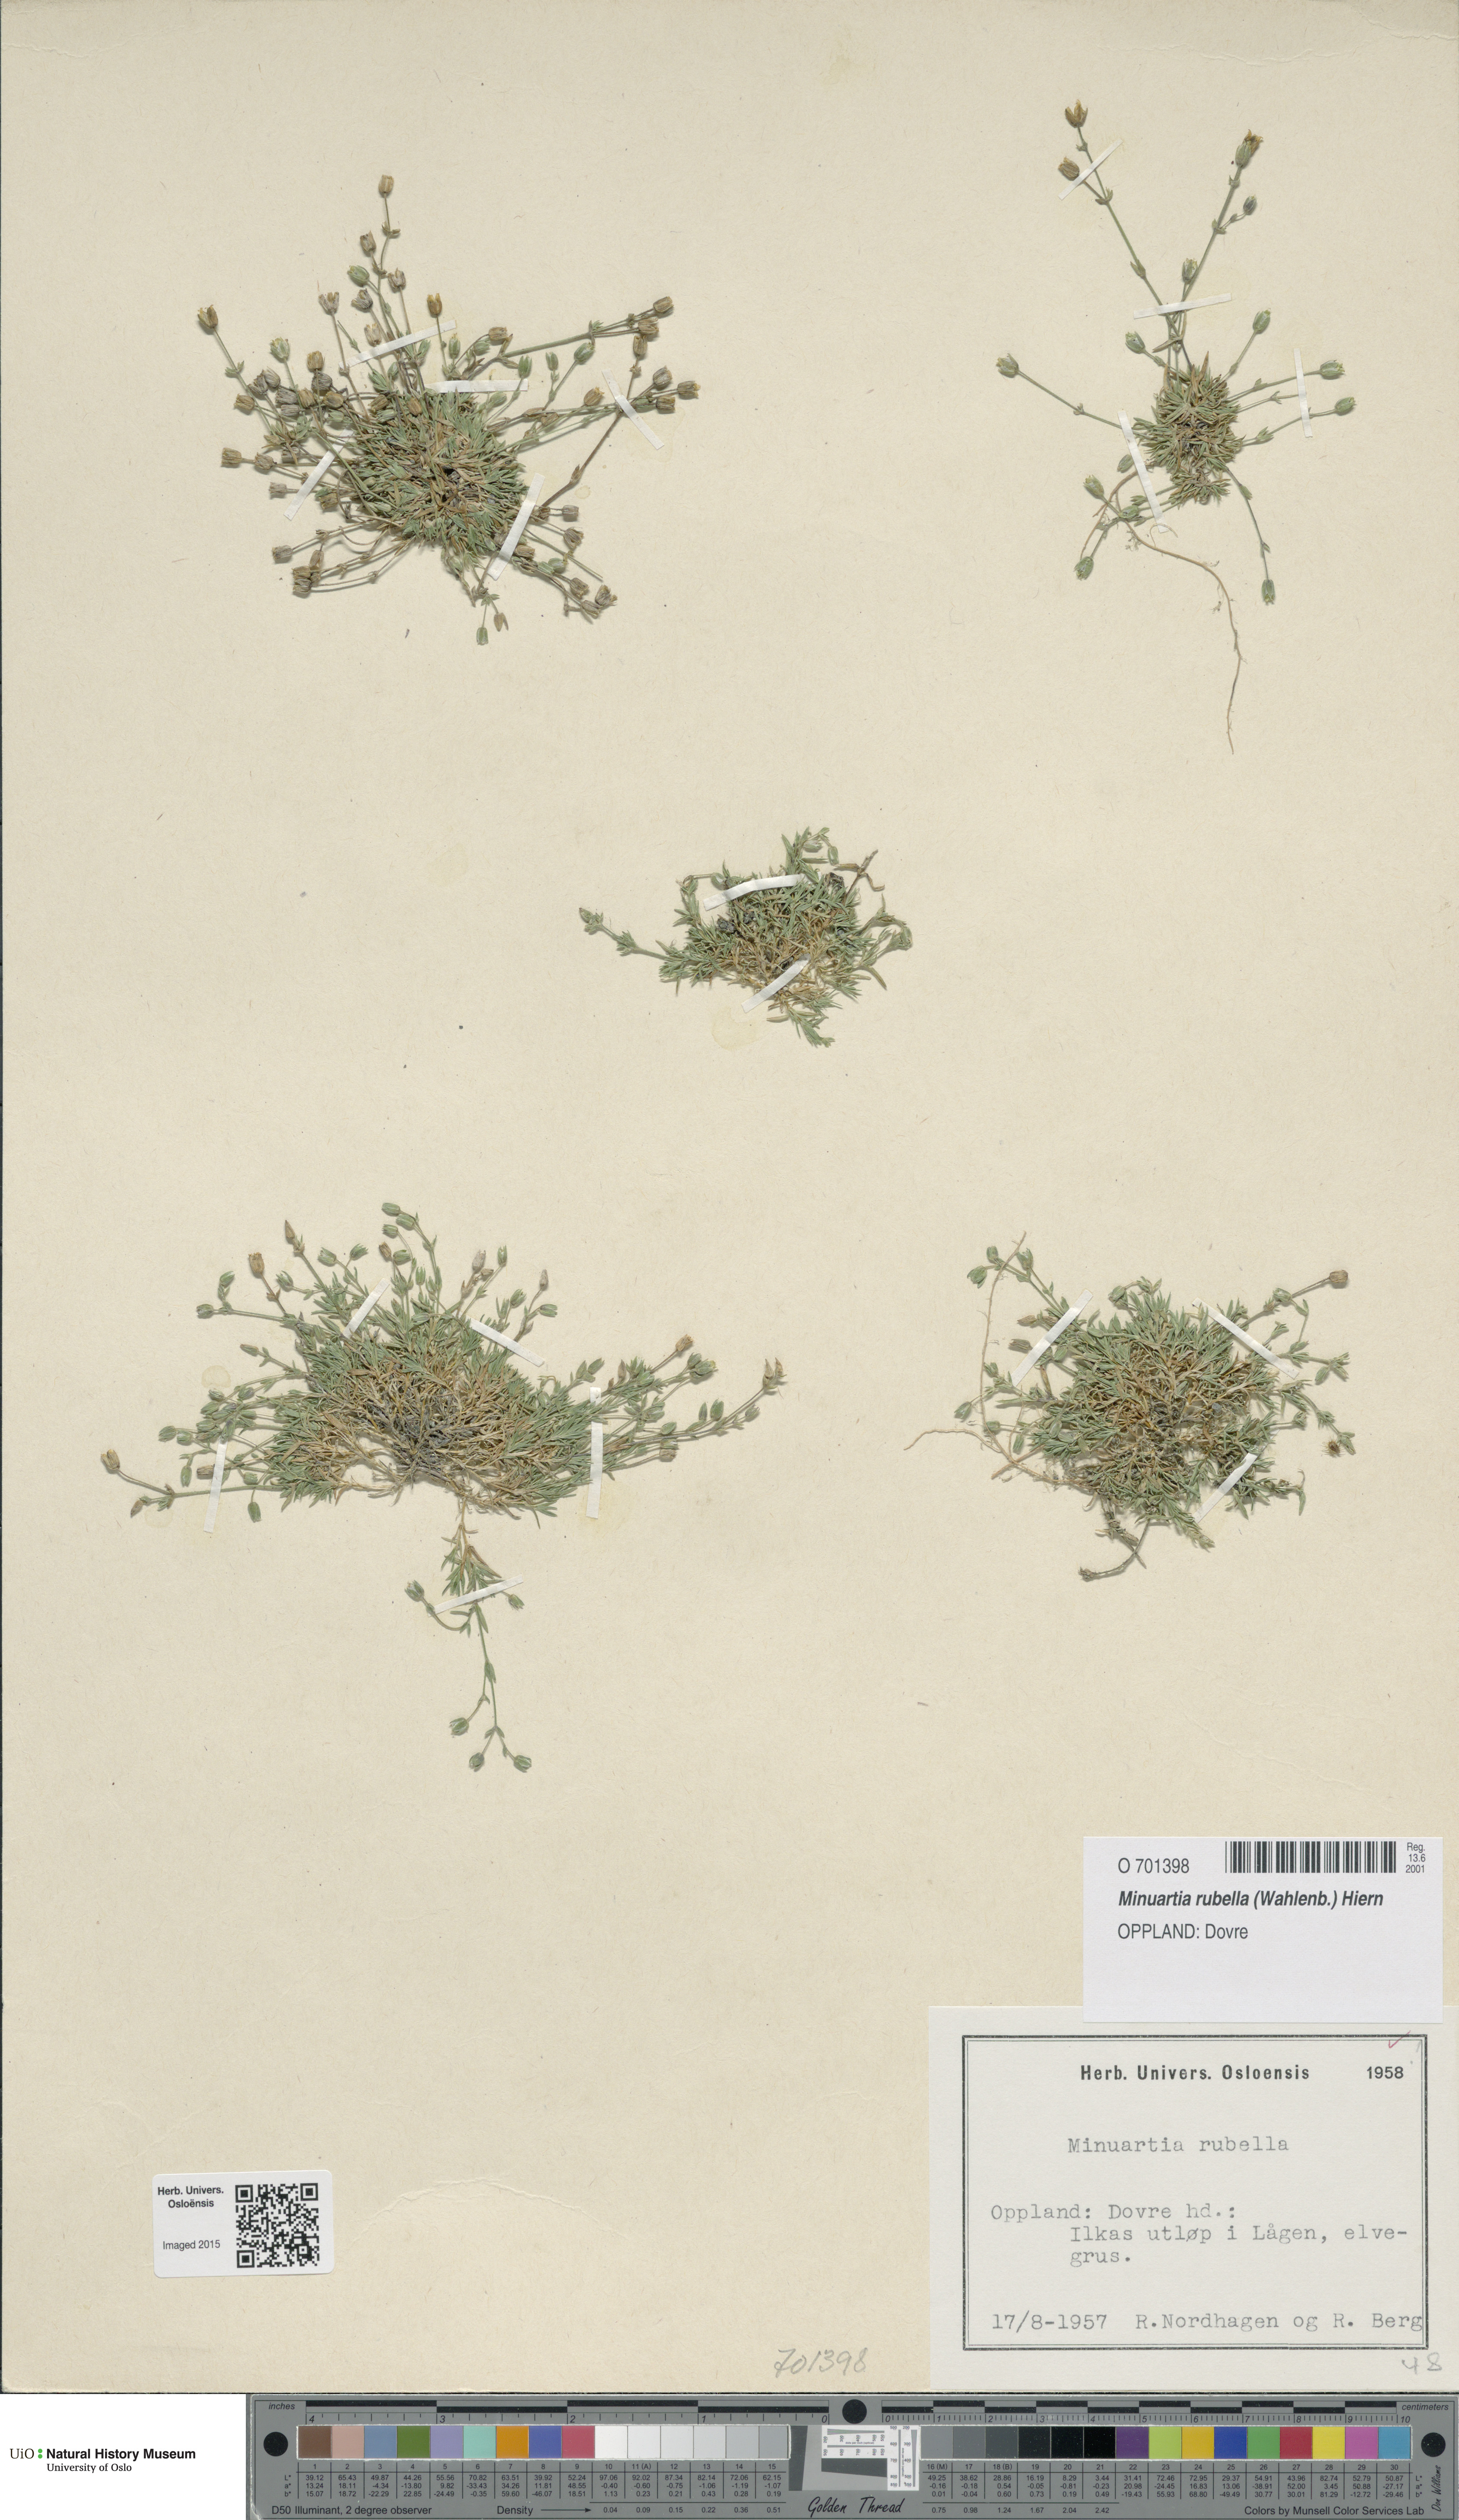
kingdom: Plantae
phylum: Tracheophyta
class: Magnoliopsida
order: Caryophyllales
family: Caryophyllaceae
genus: Sabulina
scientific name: Sabulina rubella
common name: Beautiful sandwort
